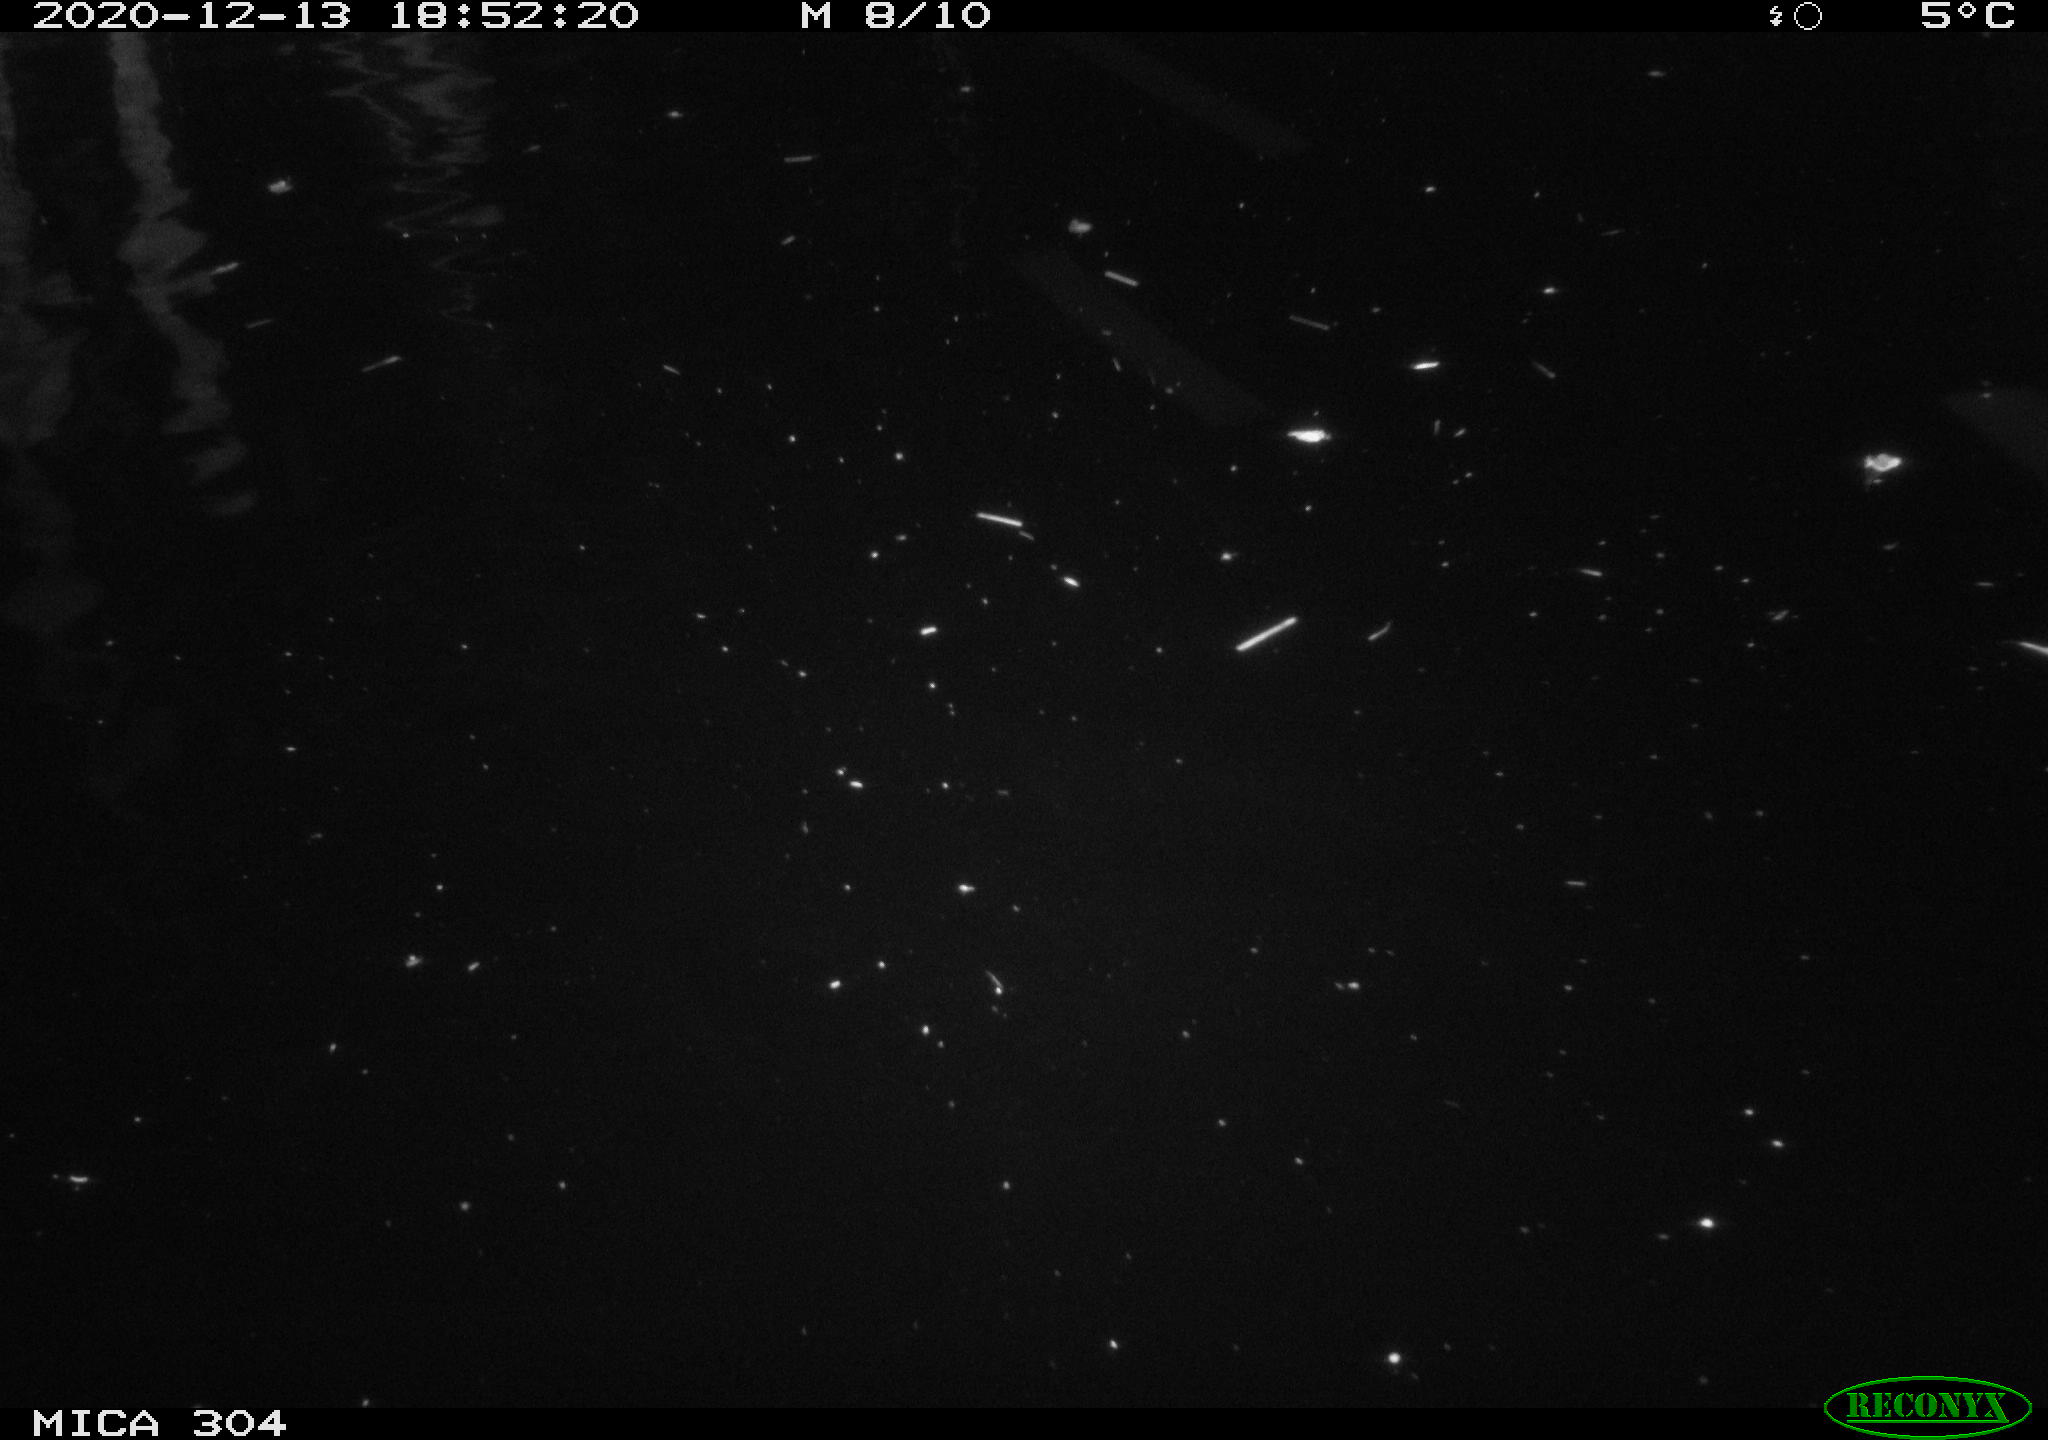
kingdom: Animalia
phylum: Chordata
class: Mammalia
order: Rodentia
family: Cricetidae
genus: Ondatra
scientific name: Ondatra zibethicus
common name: Muskrat
